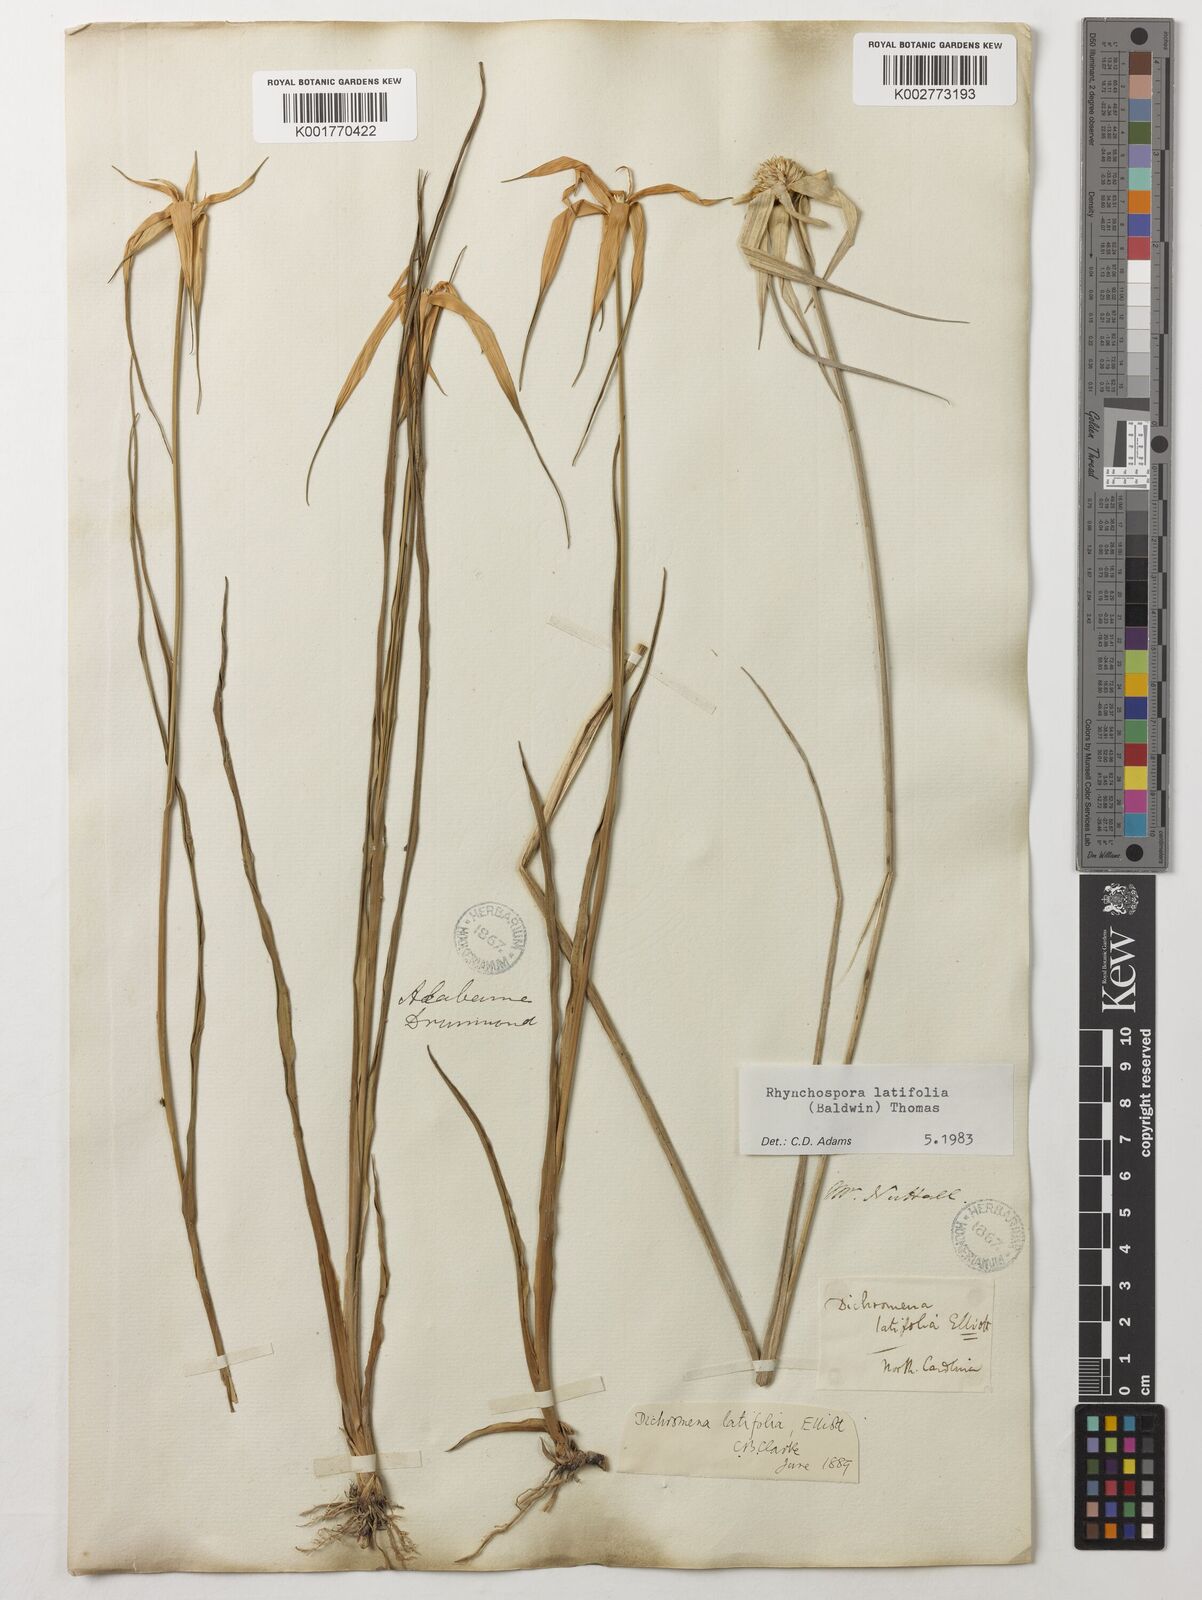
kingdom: Plantae
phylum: Tracheophyta
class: Liliopsida
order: Poales
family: Cyperaceae
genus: Rhynchospora
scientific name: Rhynchospora latifolia
